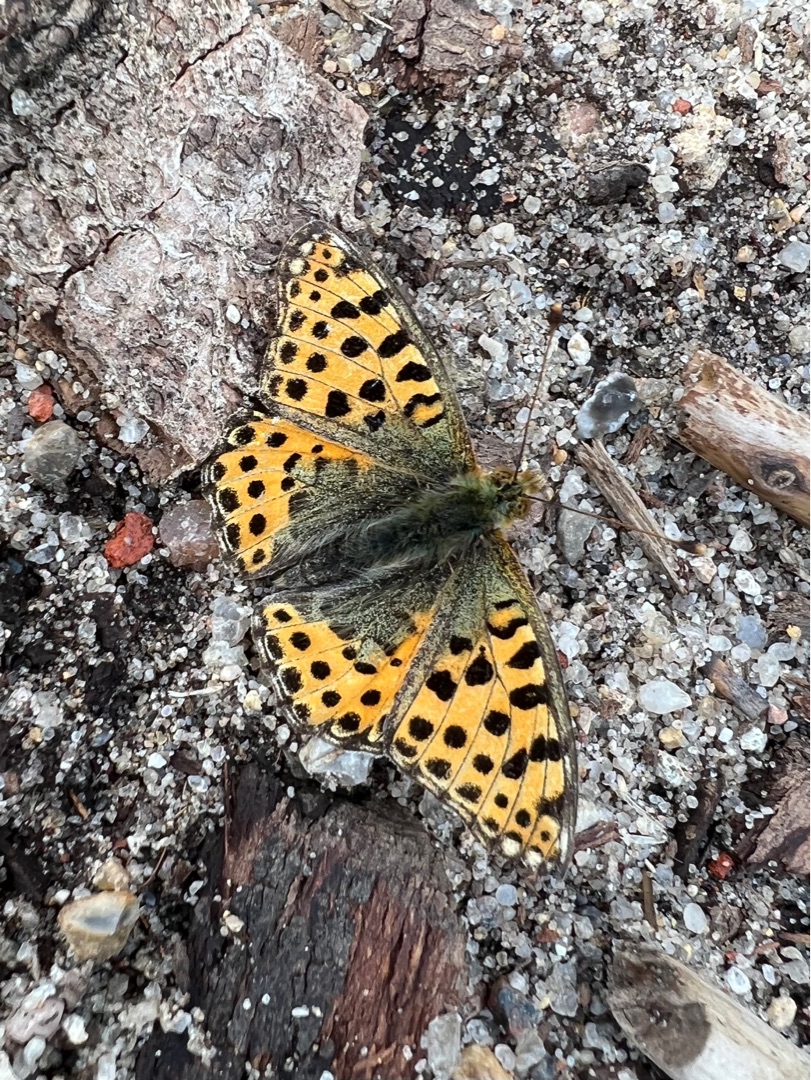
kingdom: Animalia
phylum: Arthropoda
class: Insecta
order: Lepidoptera
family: Nymphalidae
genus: Issoria
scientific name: Issoria lathonia
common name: Storplettet perlemorsommerfugl
